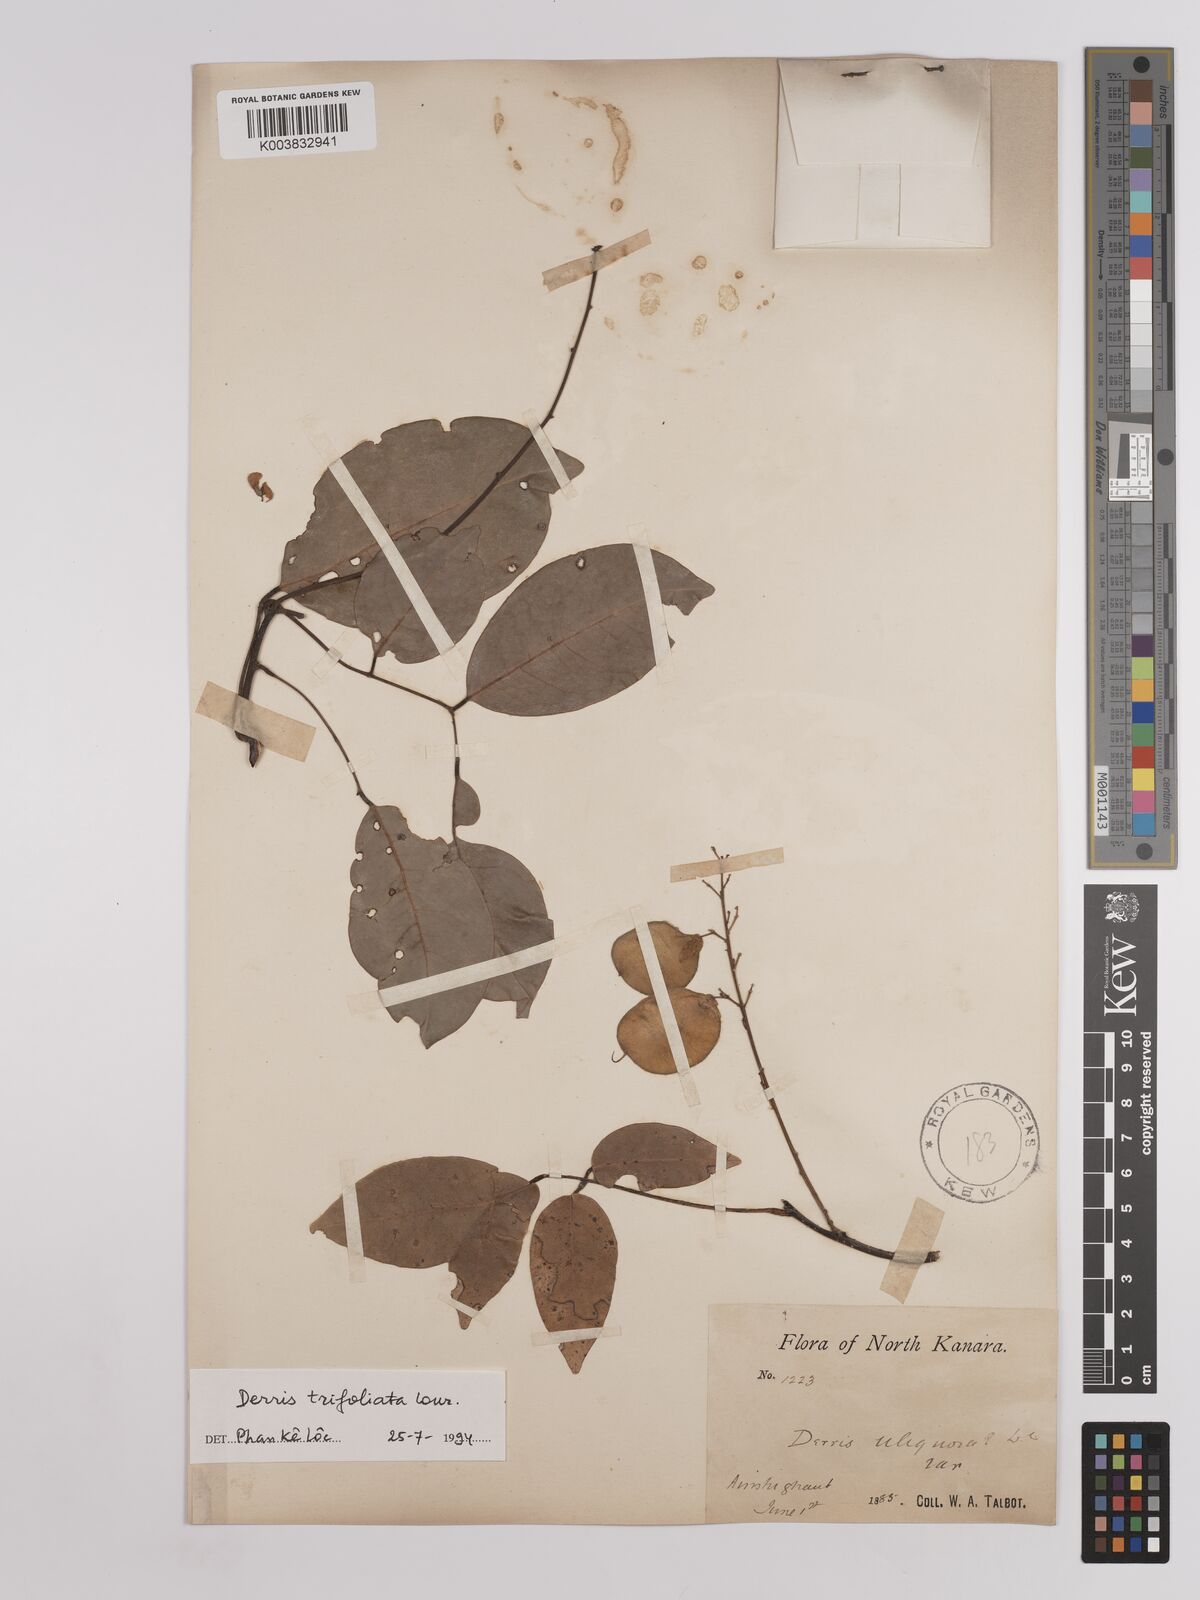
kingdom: Plantae
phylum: Tracheophyta
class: Magnoliopsida
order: Fabales
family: Fabaceae
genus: Derris
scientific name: Derris trifoliata
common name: Three-leaf derris
